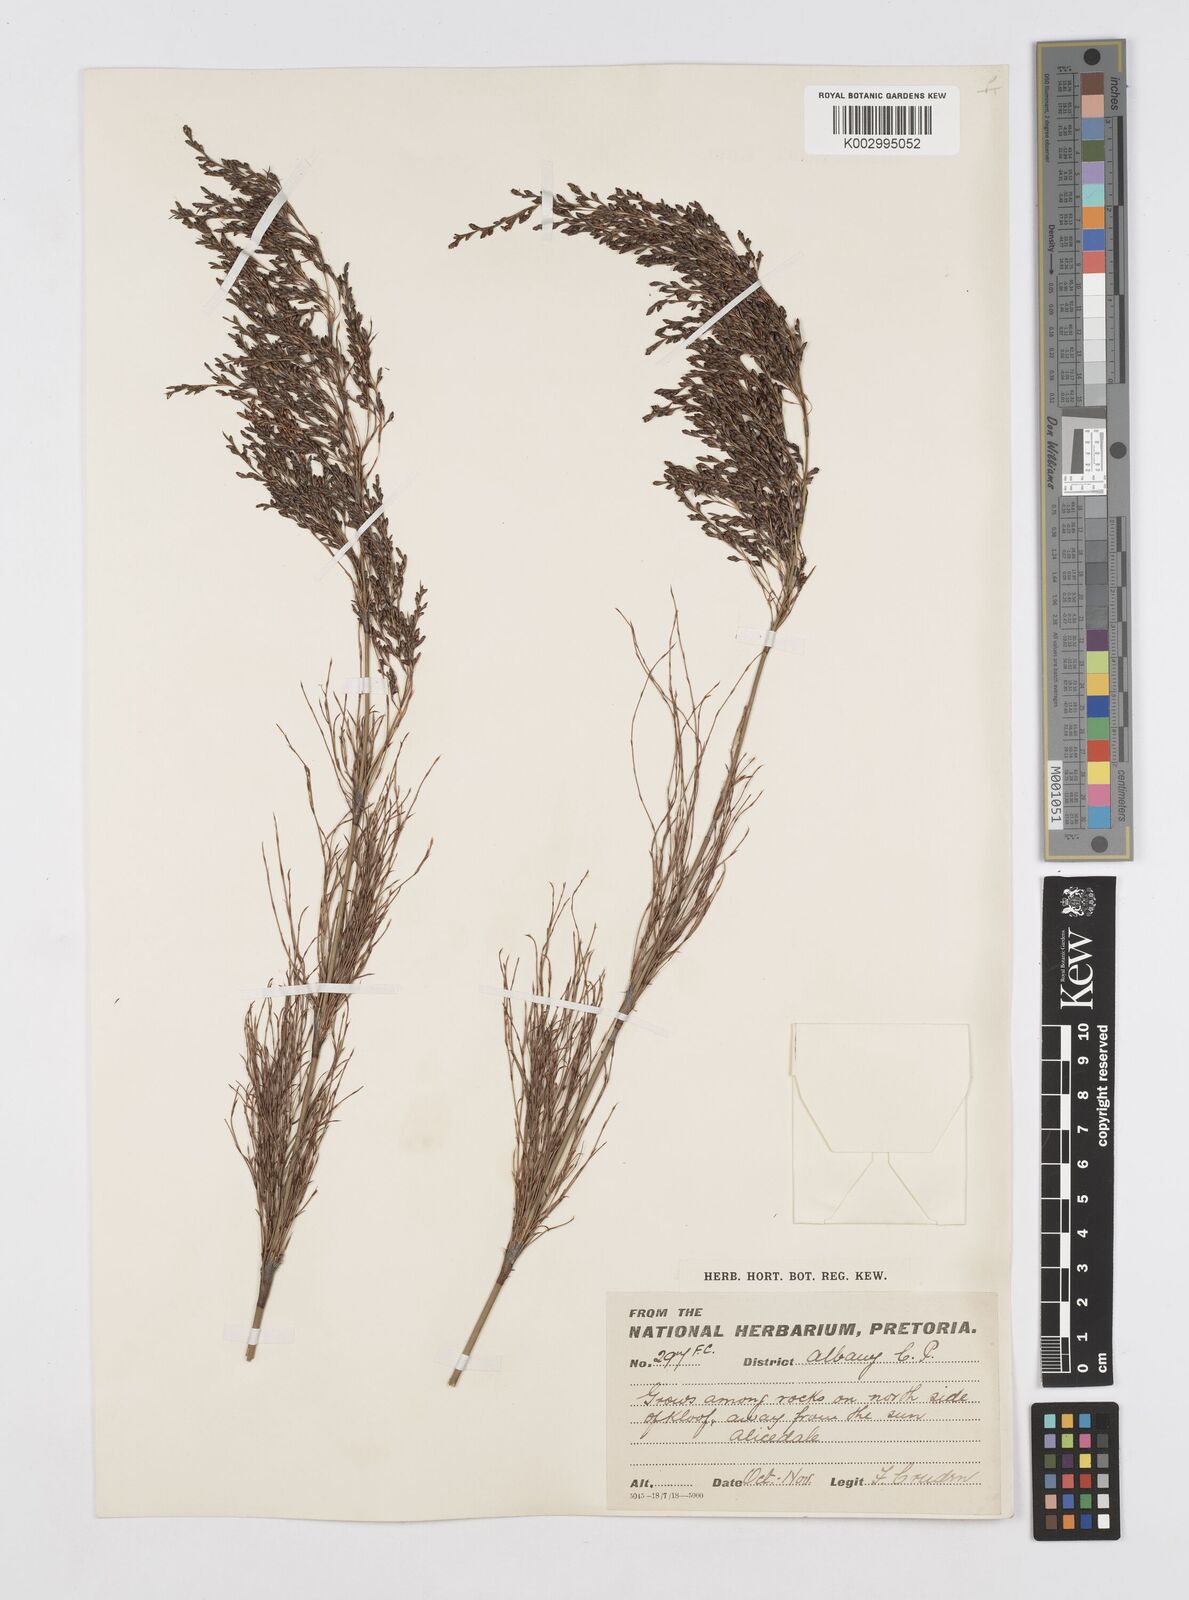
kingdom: Plantae
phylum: Tracheophyta
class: Liliopsida
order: Poales
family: Restionaceae
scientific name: Restionaceae
